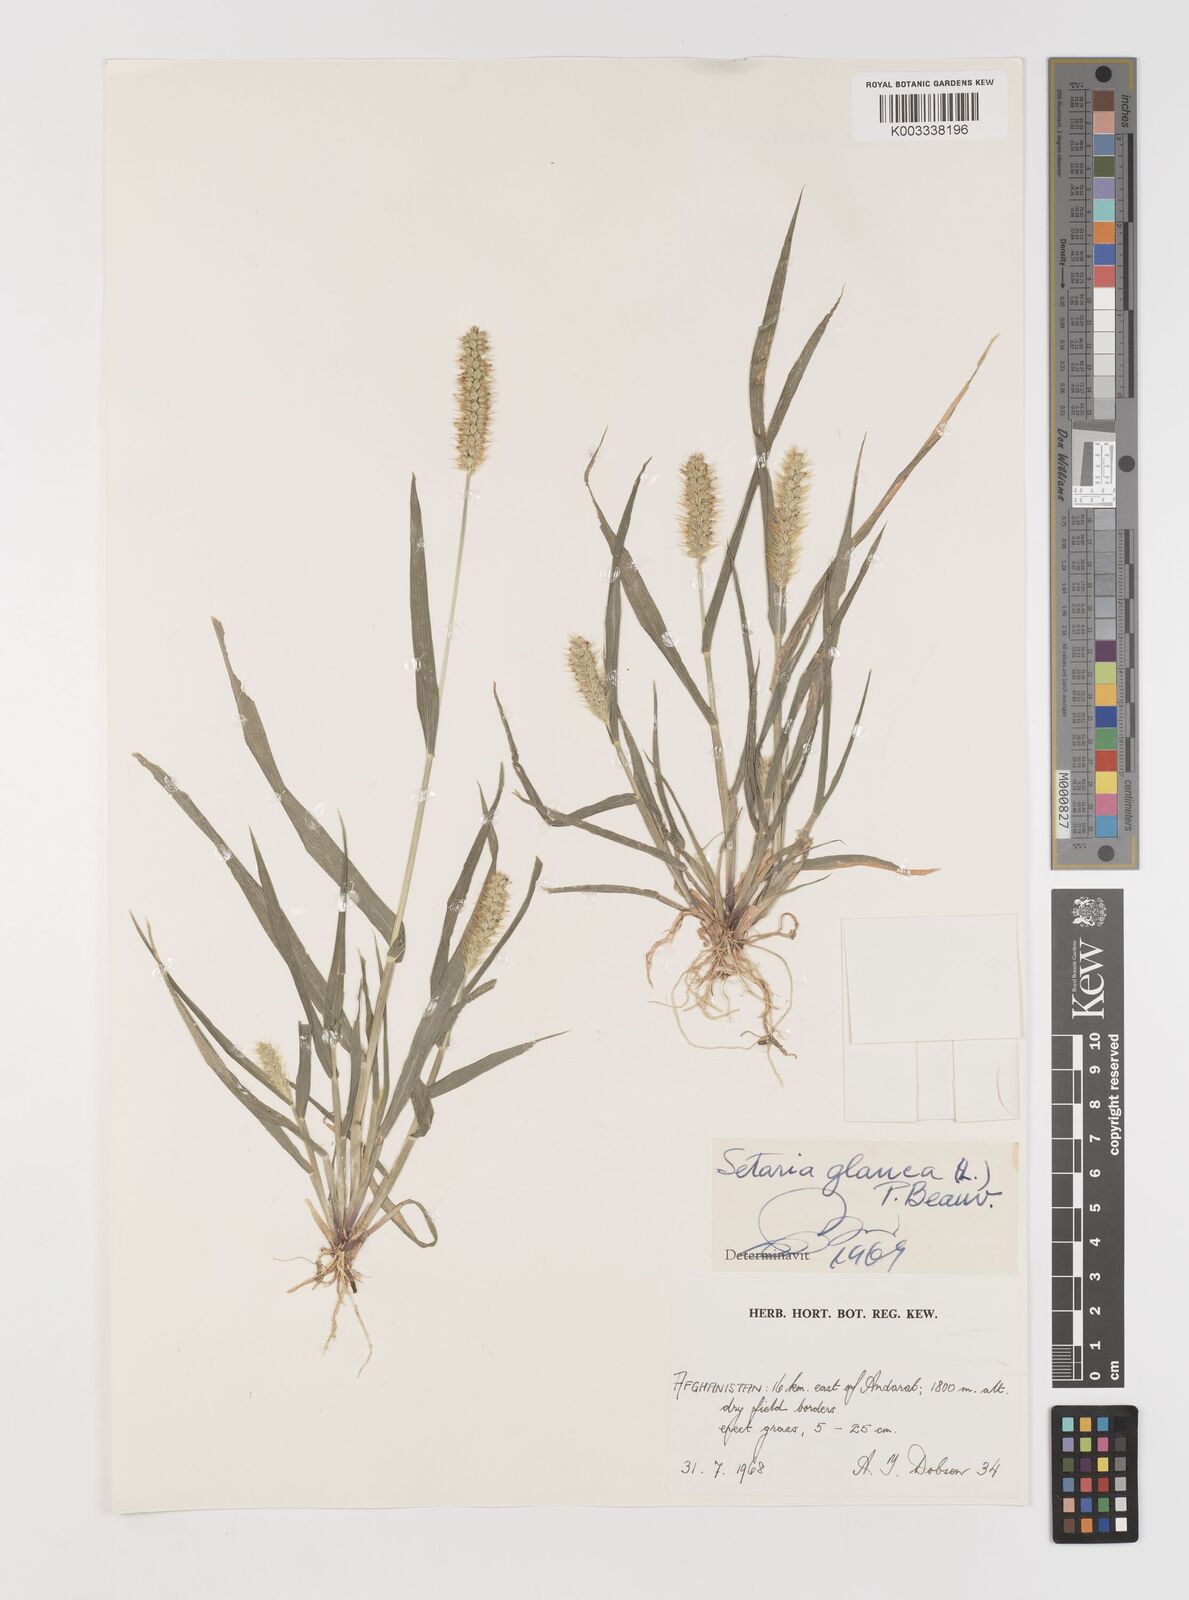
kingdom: Plantae
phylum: Tracheophyta
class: Liliopsida
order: Poales
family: Poaceae
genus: Setaria
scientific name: Setaria pumila
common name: Yellow bristle-grass
